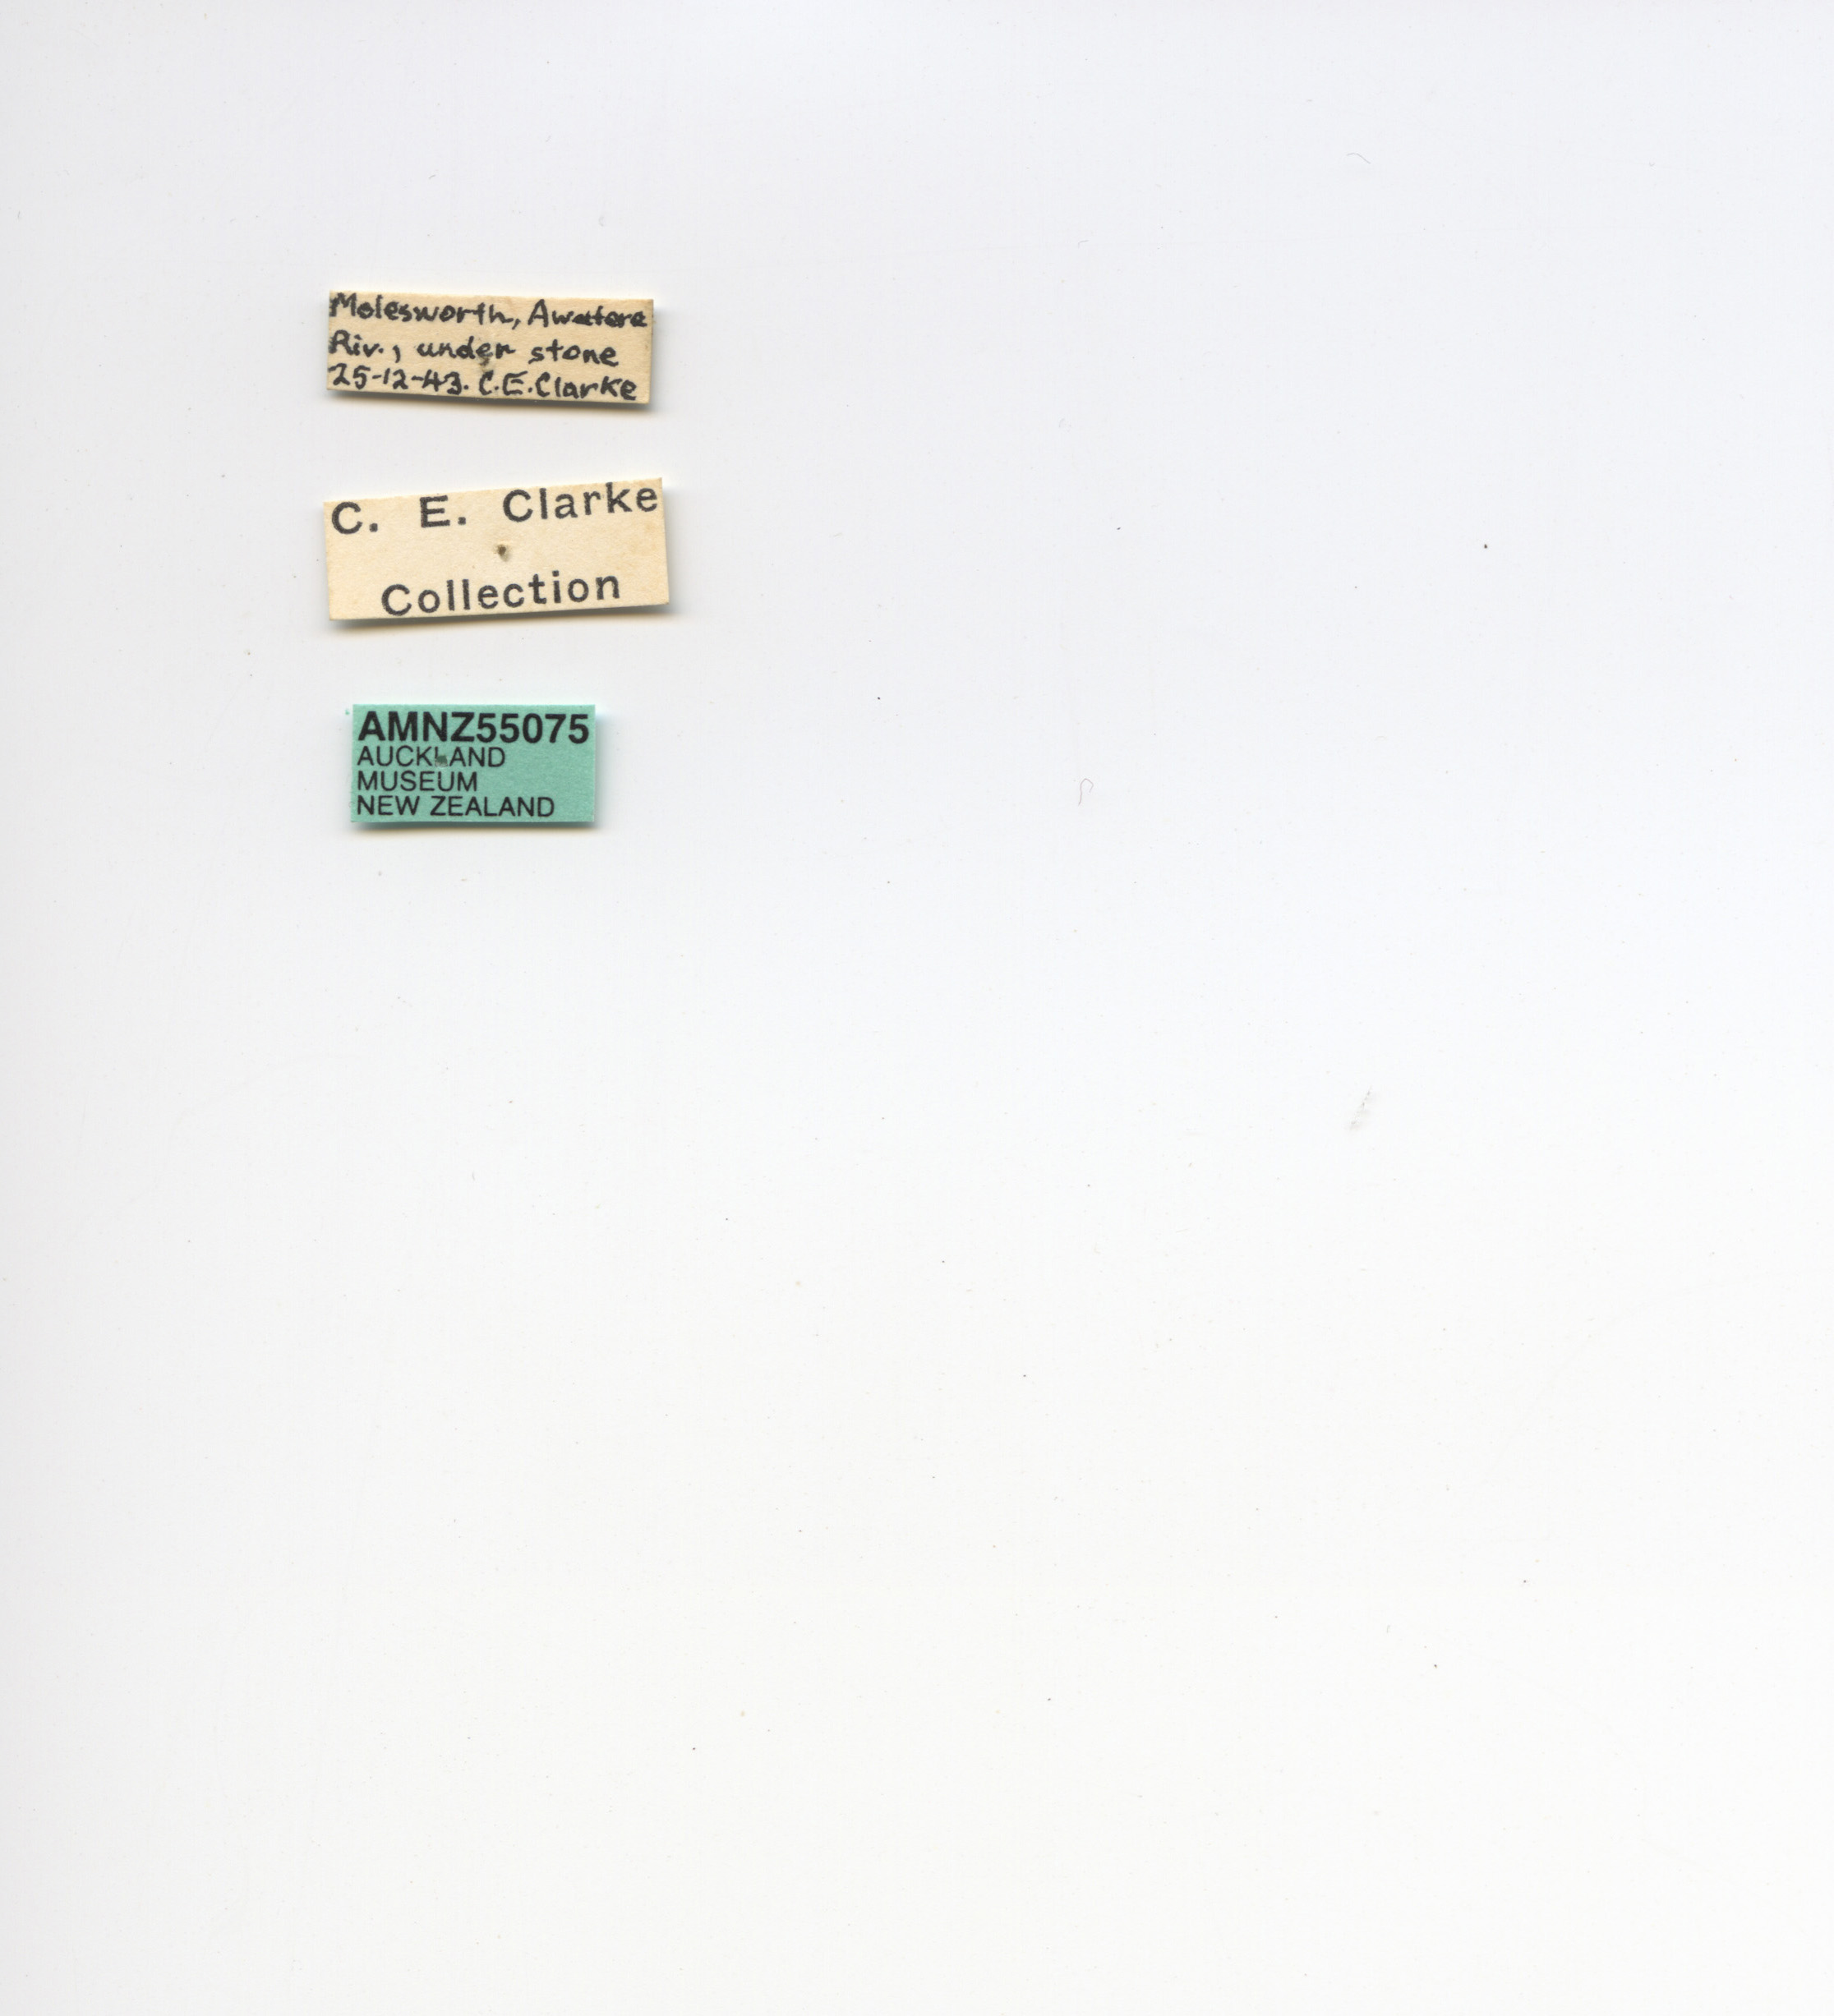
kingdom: Animalia
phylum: Arthropoda
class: Insecta
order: Coleoptera
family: Tenebrionidae
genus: Mimopeus
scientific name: Mimopeus
